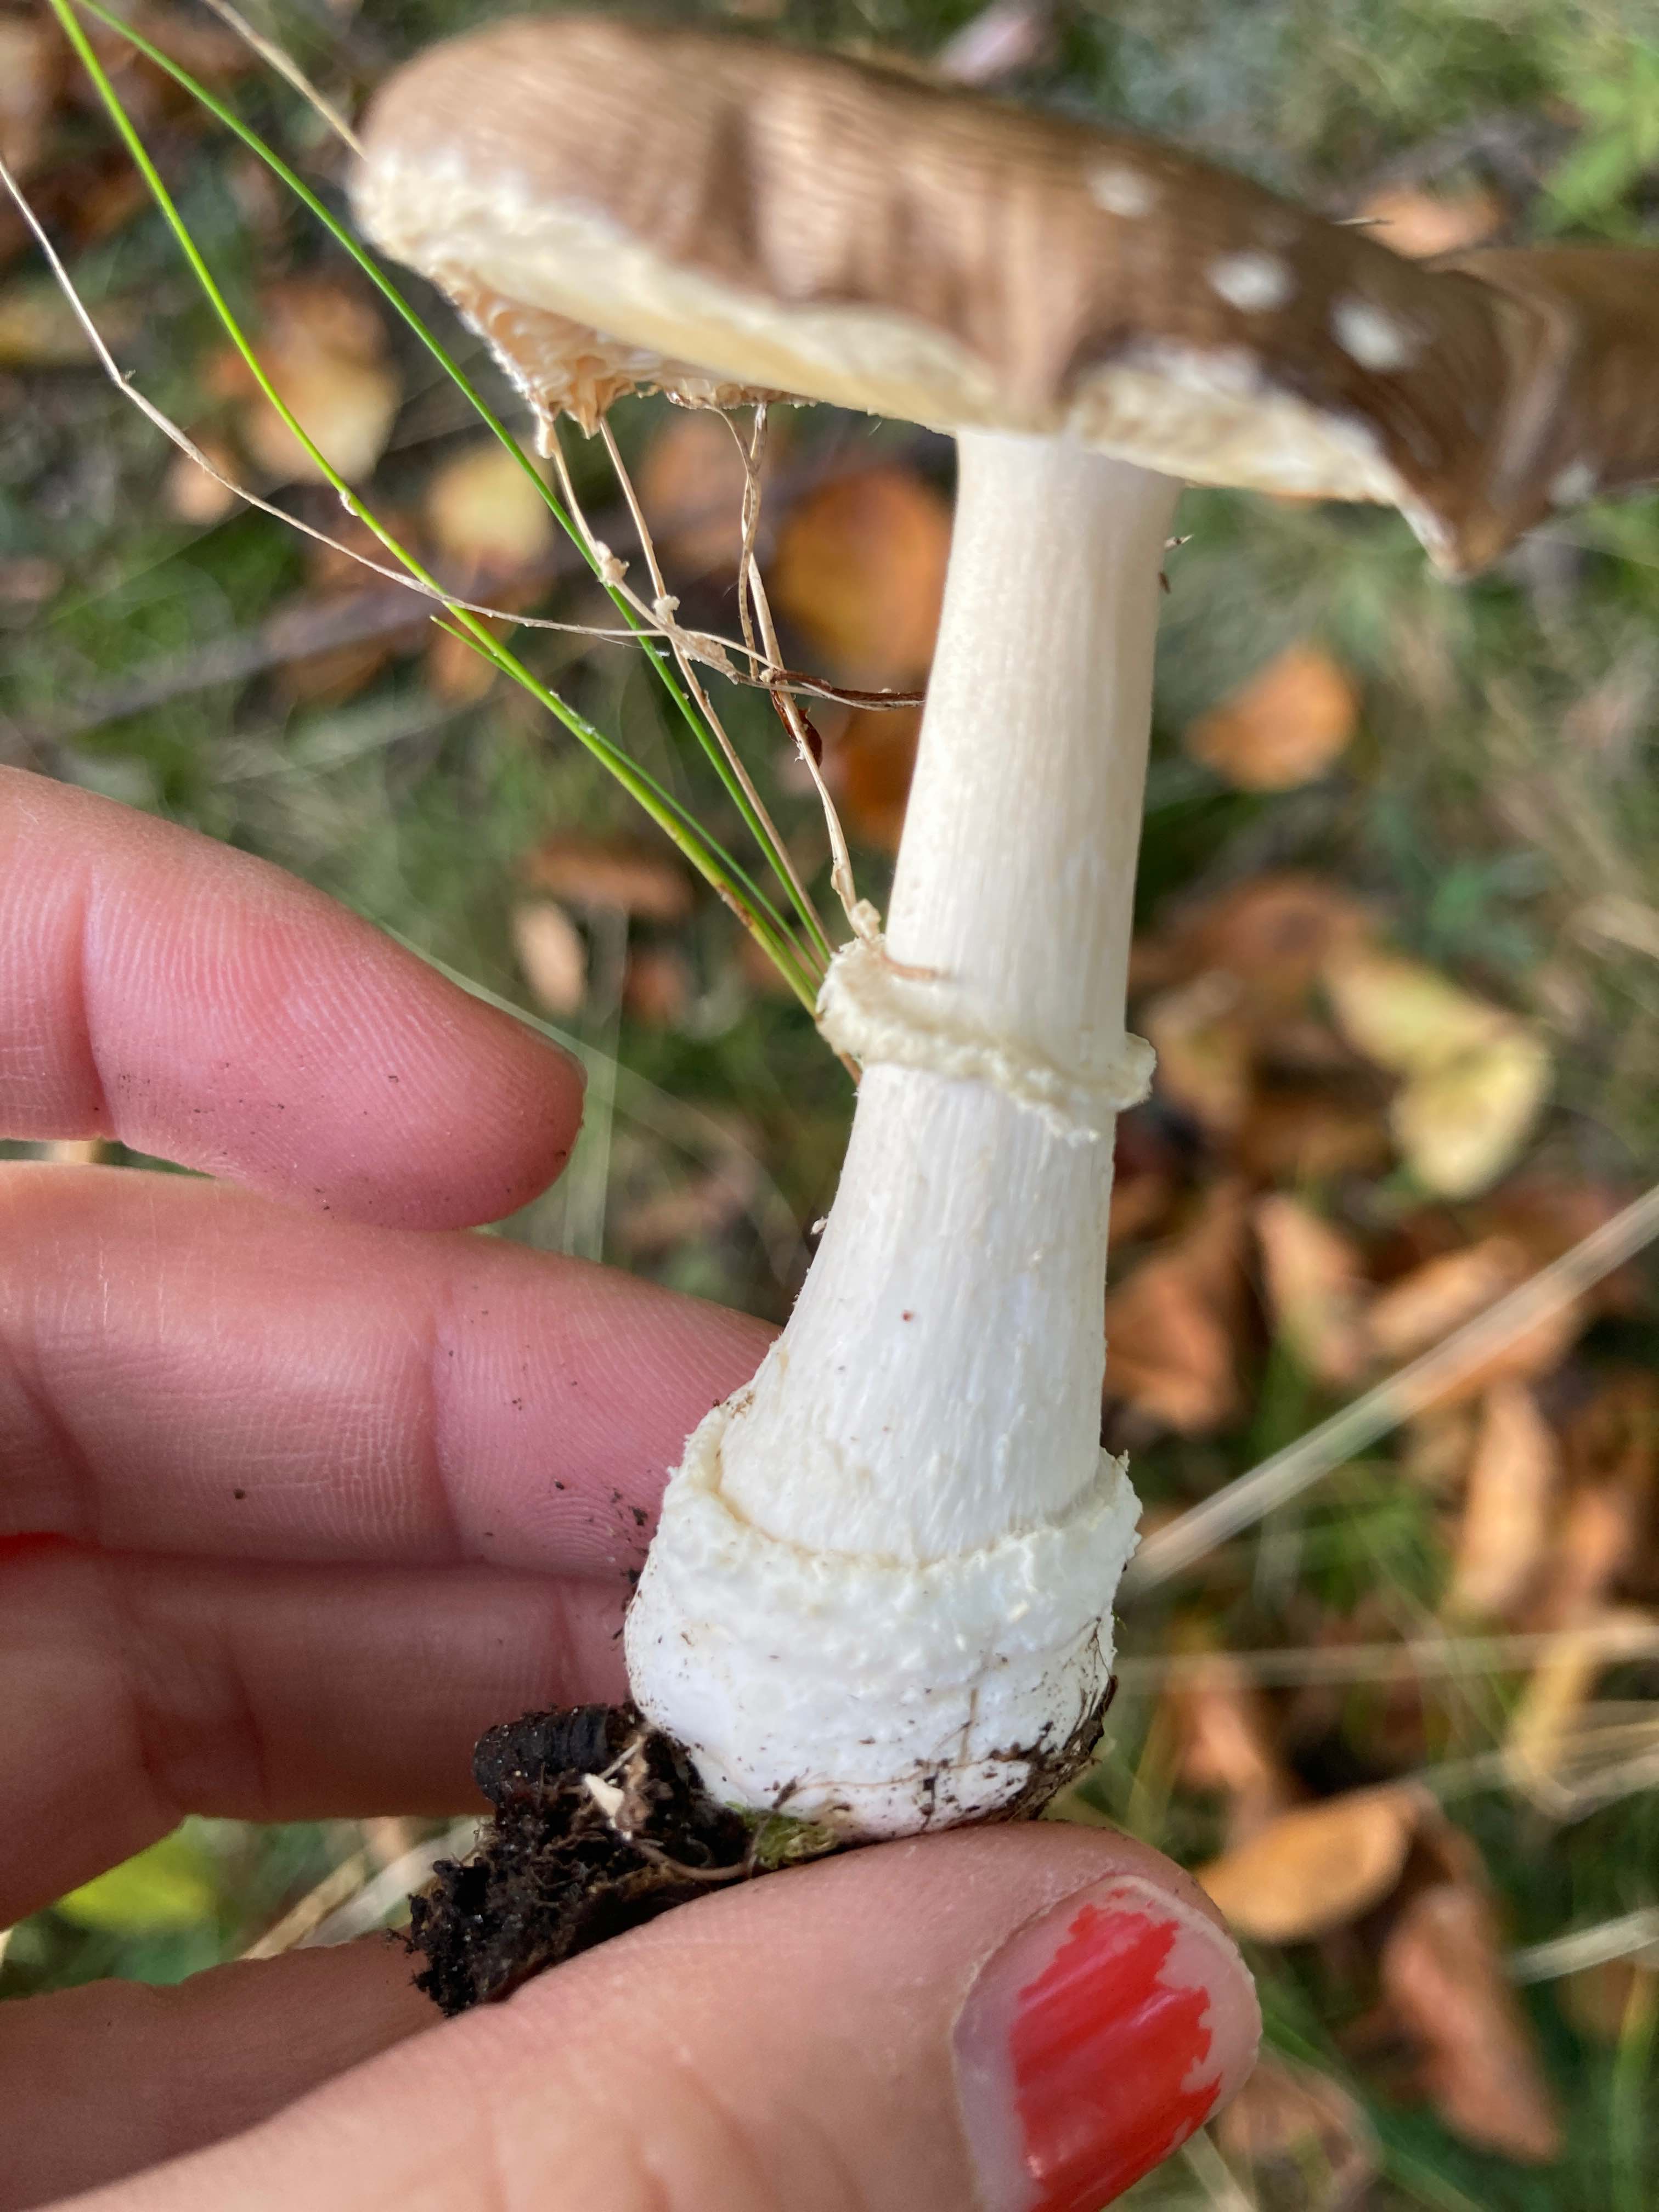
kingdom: Fungi
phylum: Basidiomycota
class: Agaricomycetes
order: Agaricales
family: Amanitaceae
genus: Amanita
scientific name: Amanita pantherina
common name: panter-fluesvamp
